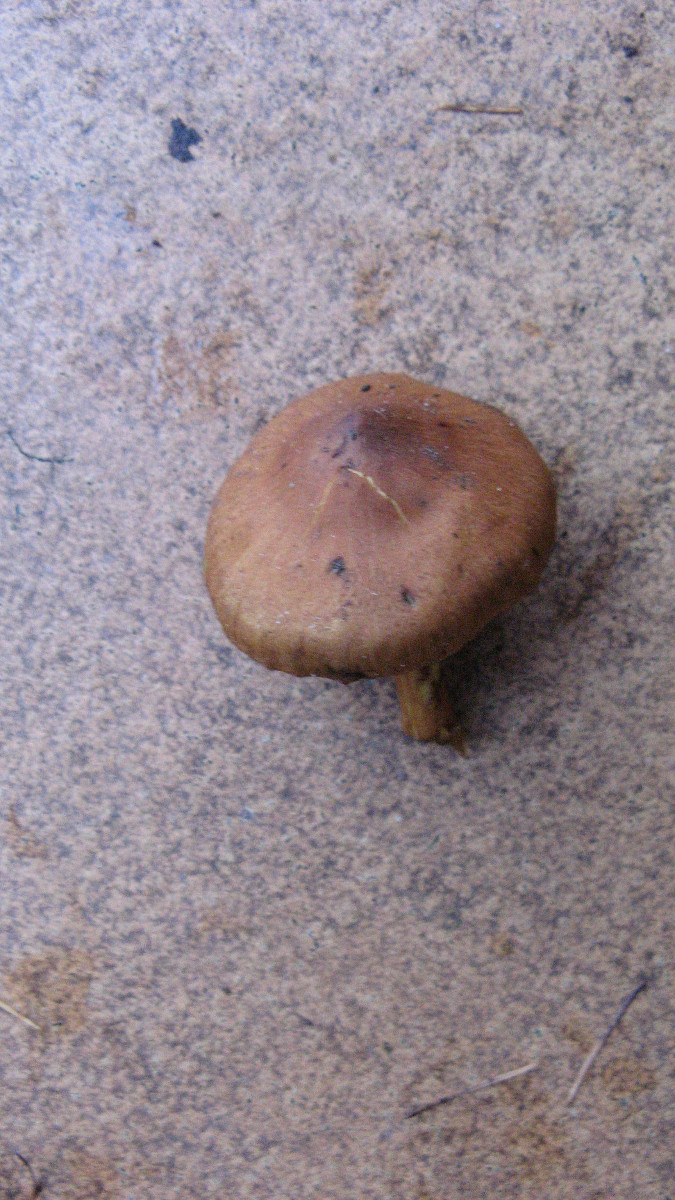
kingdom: Fungi
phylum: Basidiomycota
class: Agaricomycetes
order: Agaricales
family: Cortinariaceae
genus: Cortinarius
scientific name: Cortinarius
